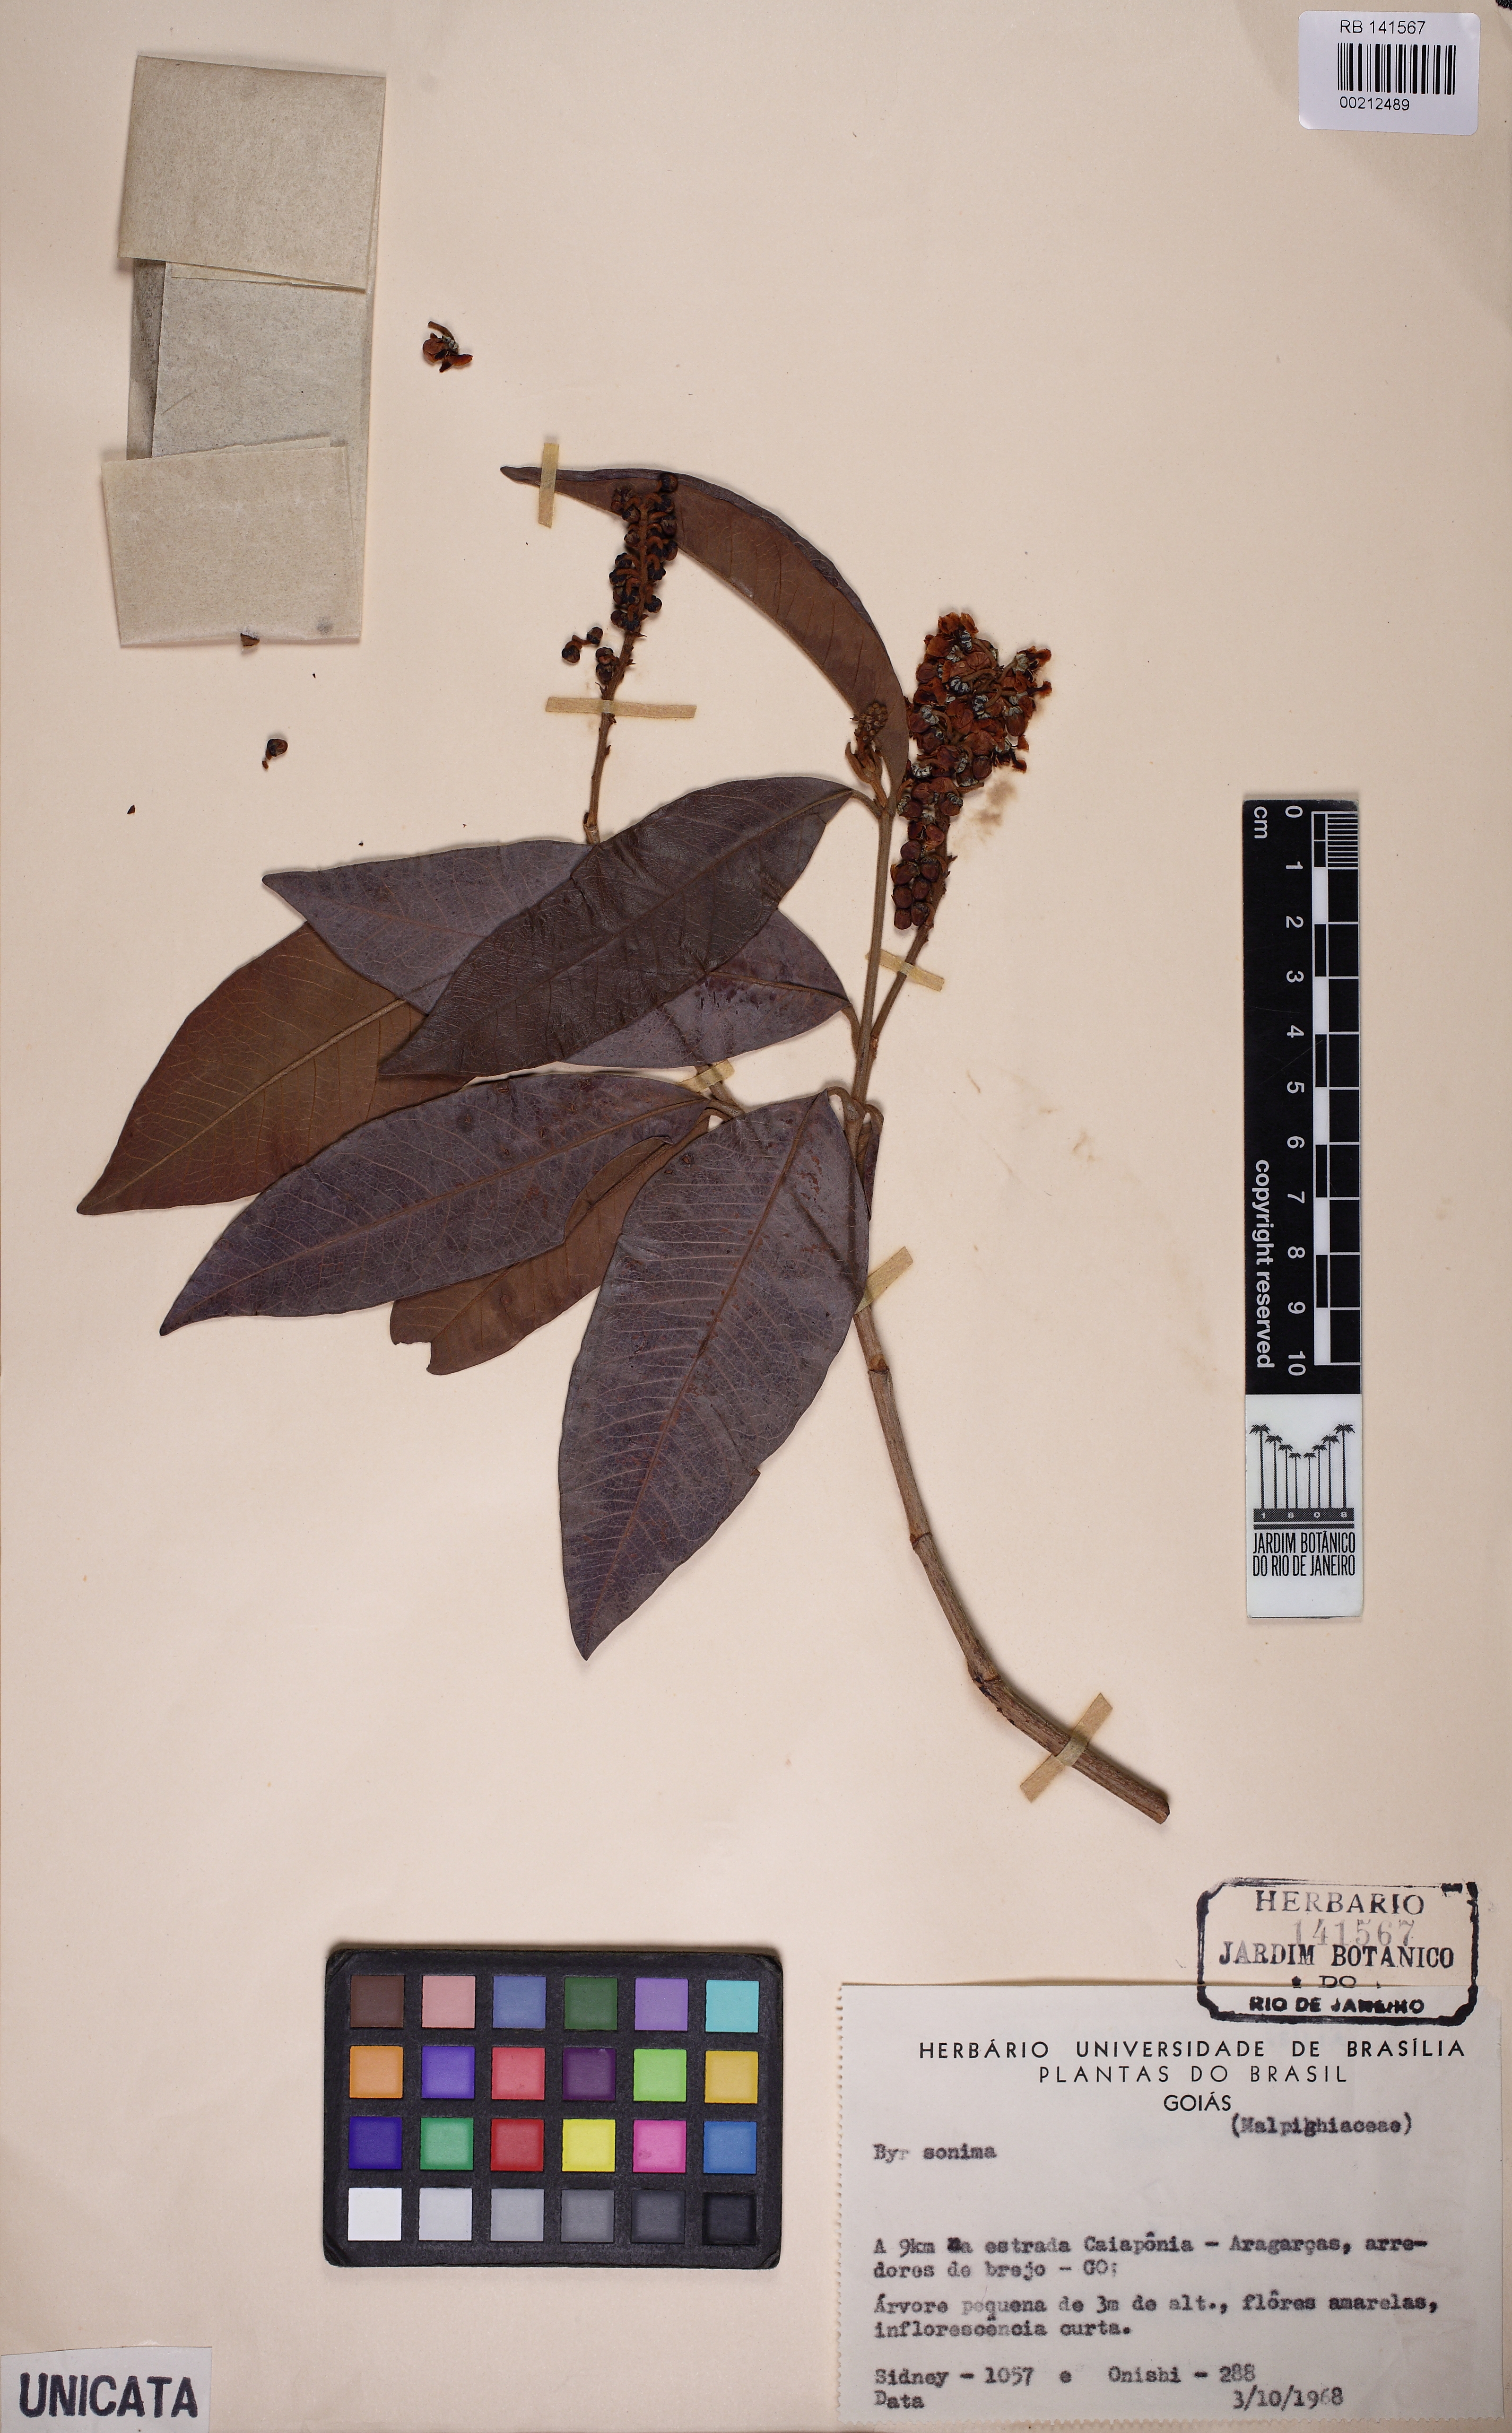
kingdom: Plantae
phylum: Tracheophyta
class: Magnoliopsida
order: Malpighiales
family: Malpighiaceae
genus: Byrsonima
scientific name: Byrsonima
